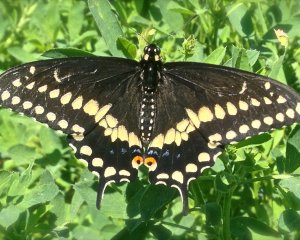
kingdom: Animalia
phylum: Arthropoda
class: Insecta
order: Lepidoptera
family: Papilionidae
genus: Papilio
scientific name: Papilio polyxenes
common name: Black Swallowtail
